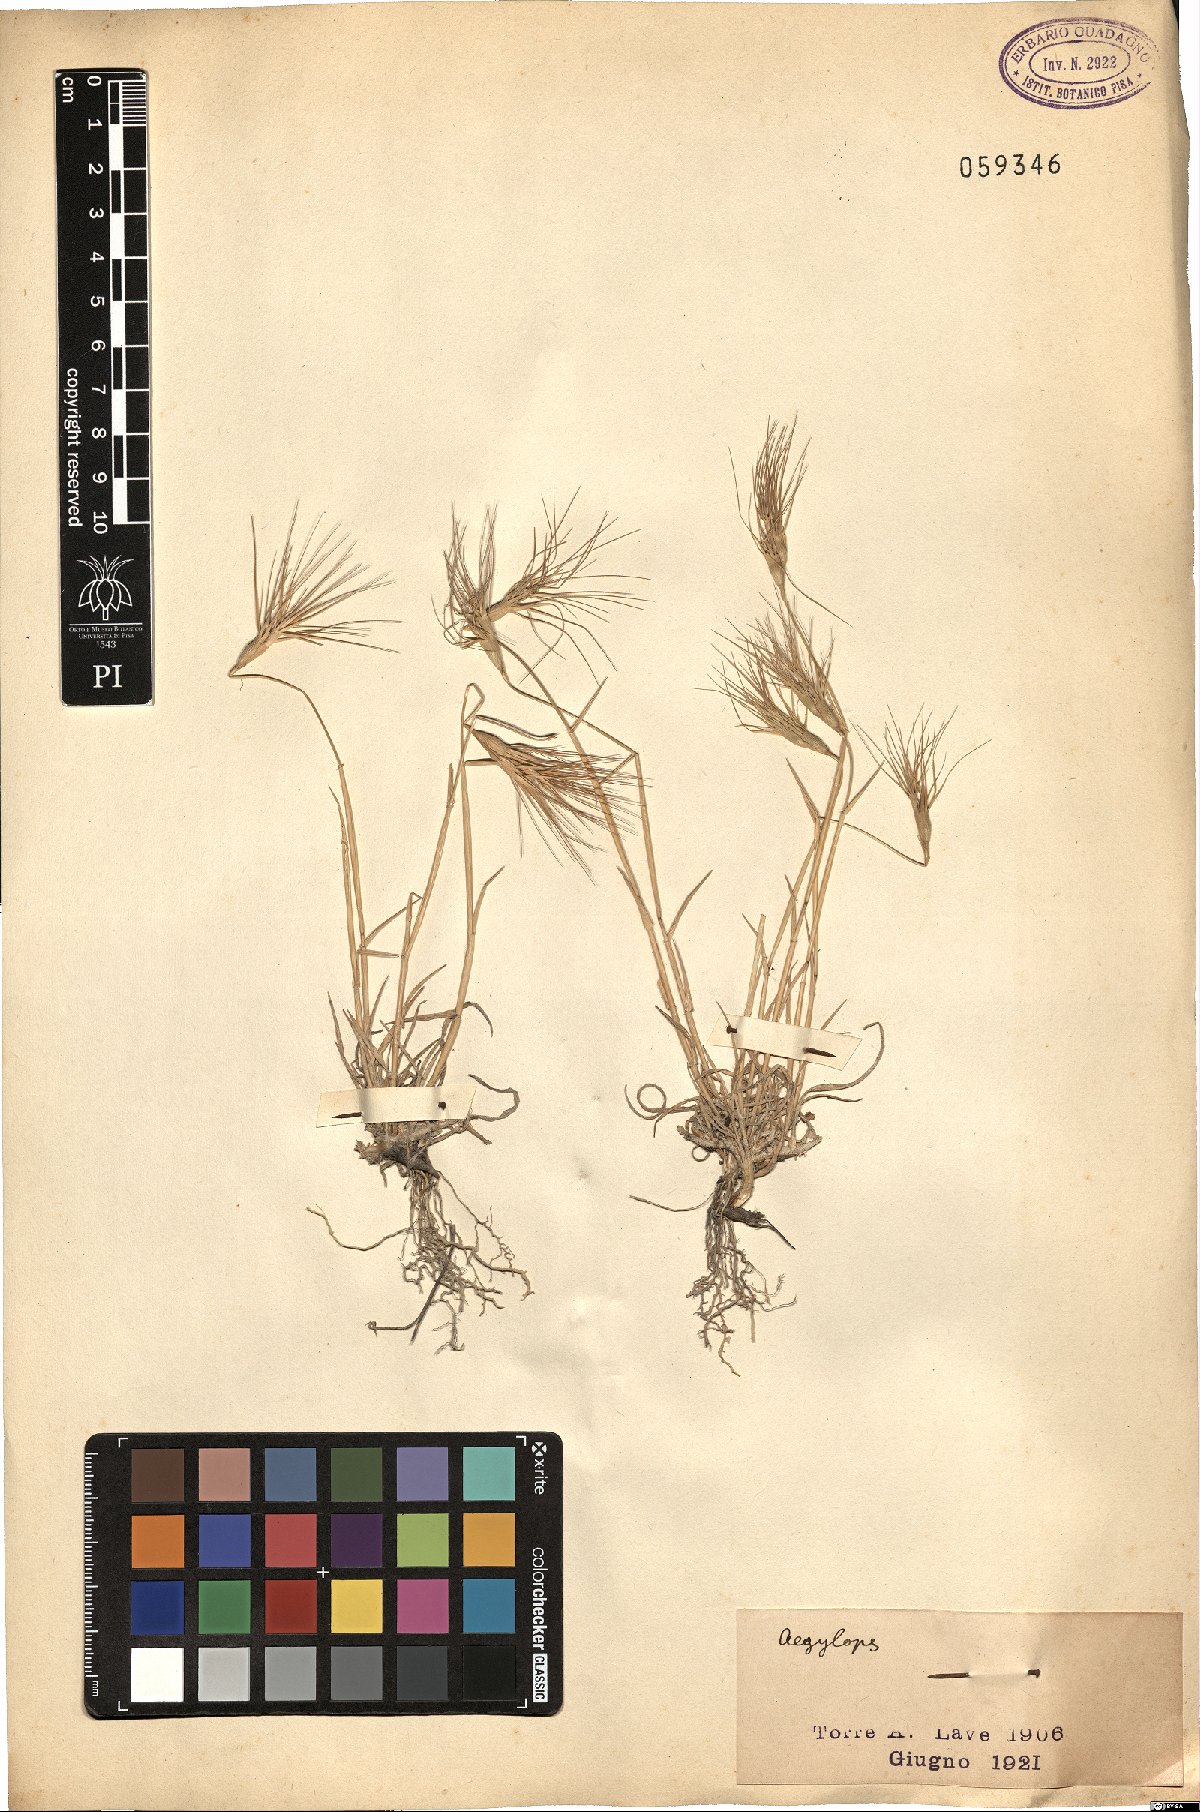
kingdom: Plantae
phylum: Tracheophyta
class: Liliopsida
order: Poales
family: Poaceae
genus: Aegilops
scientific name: Aegilops
